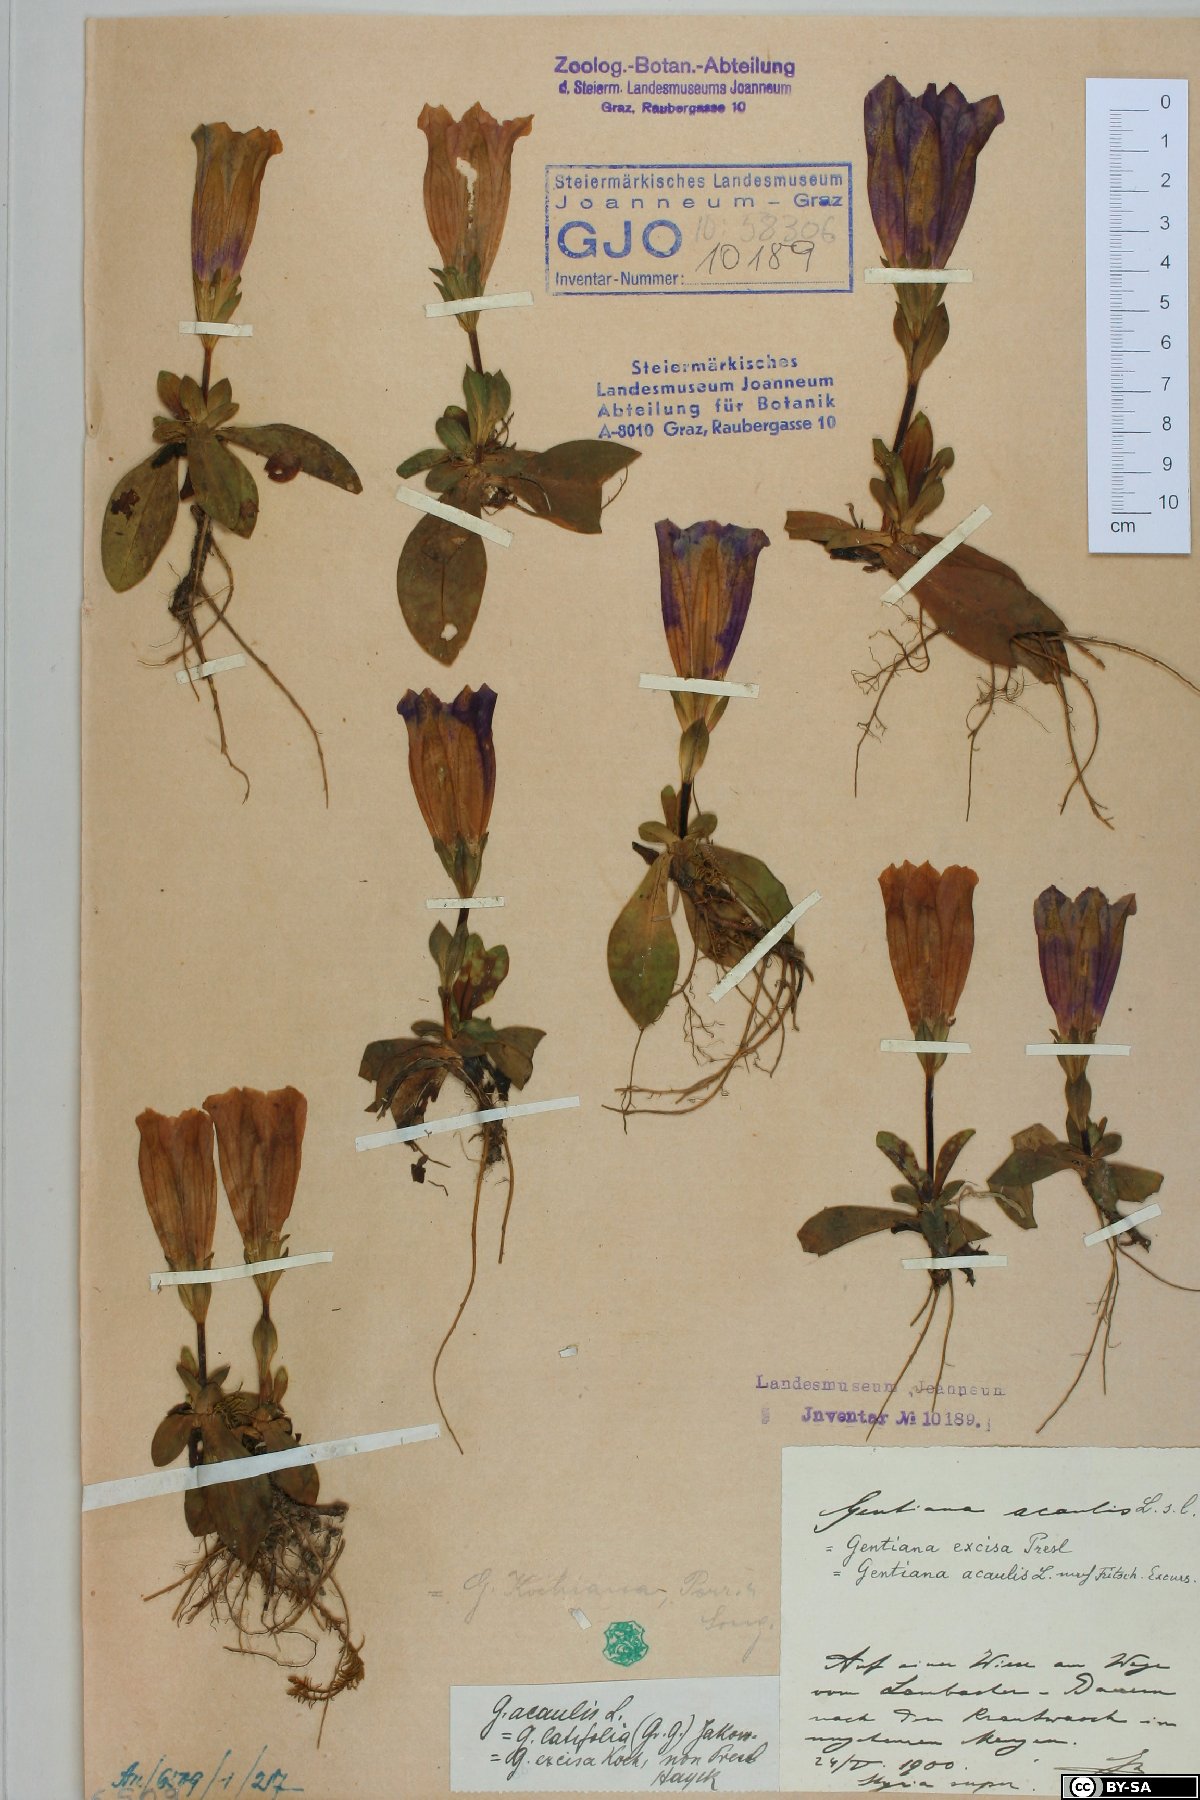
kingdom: Plantae
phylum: Tracheophyta
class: Magnoliopsida
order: Gentianales
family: Gentianaceae
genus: Gentiana
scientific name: Gentiana acaulis
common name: Trumpet gentian
